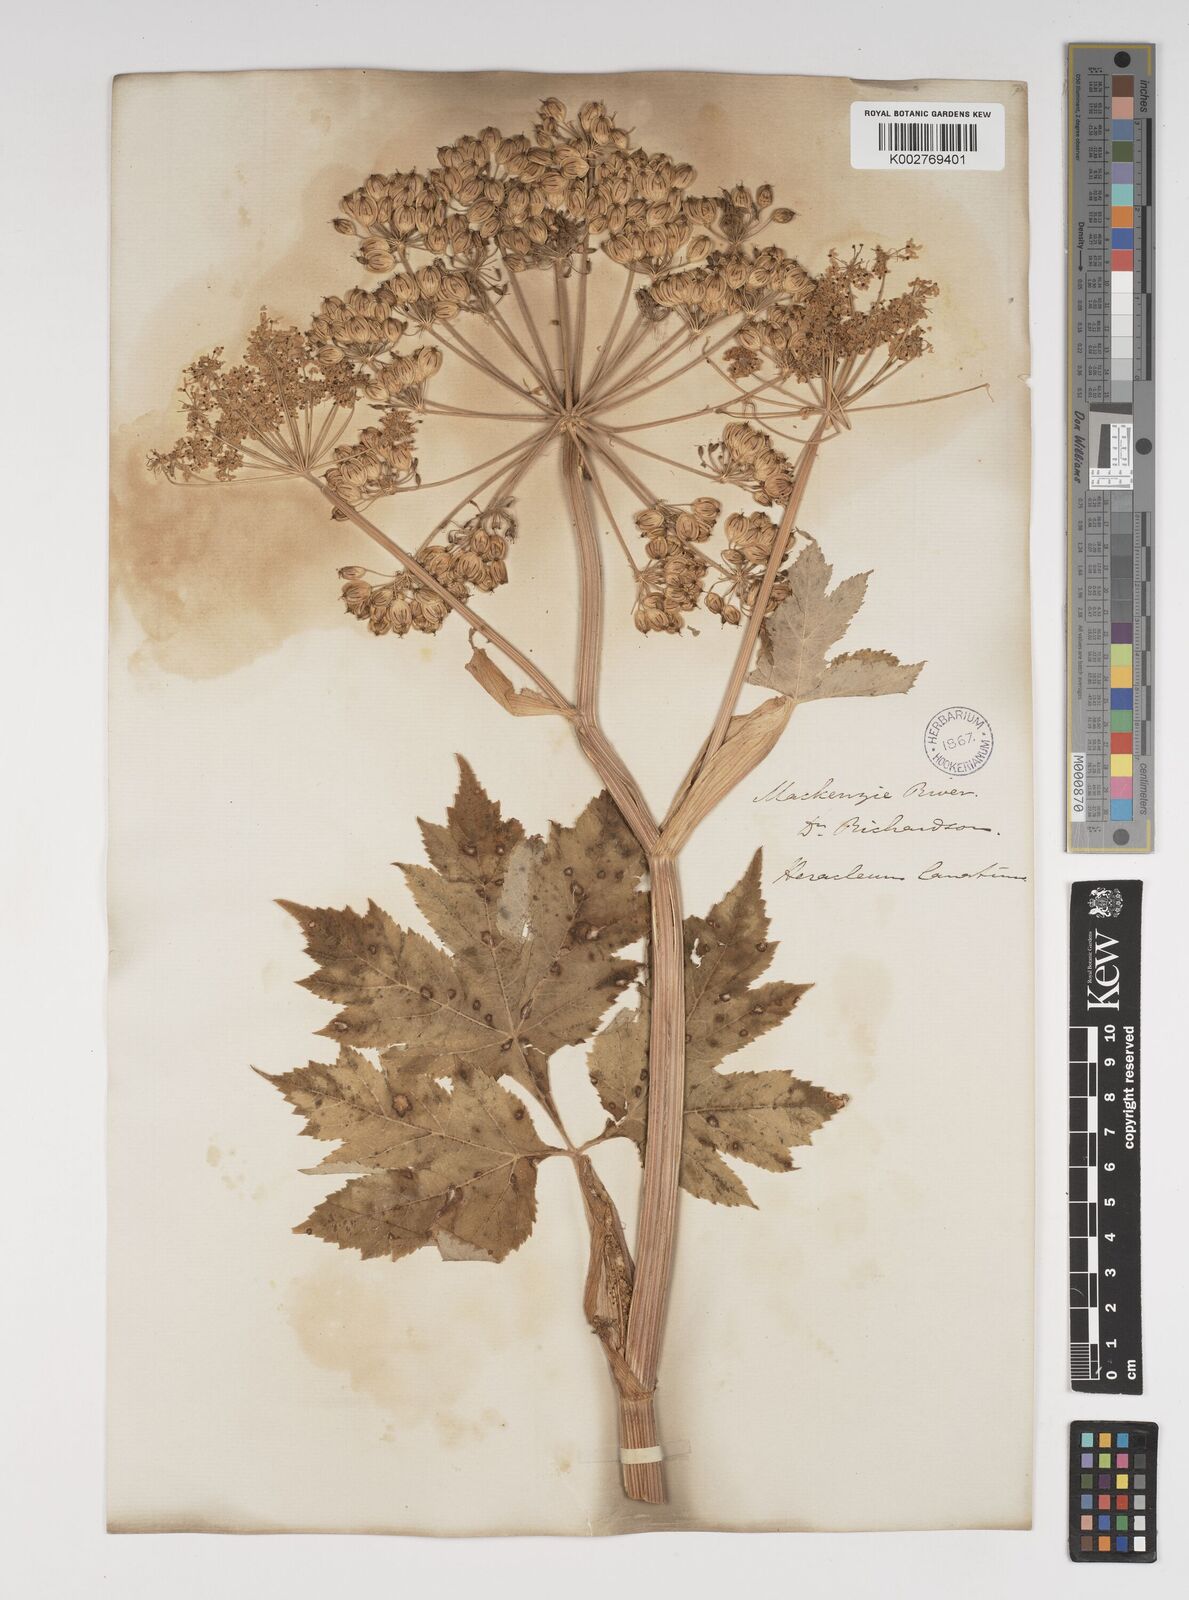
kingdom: Plantae
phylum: Tracheophyta
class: Magnoliopsida
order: Apiales
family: Apiaceae
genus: Heracleum
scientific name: Heracleum sphondylium
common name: Hogweed
